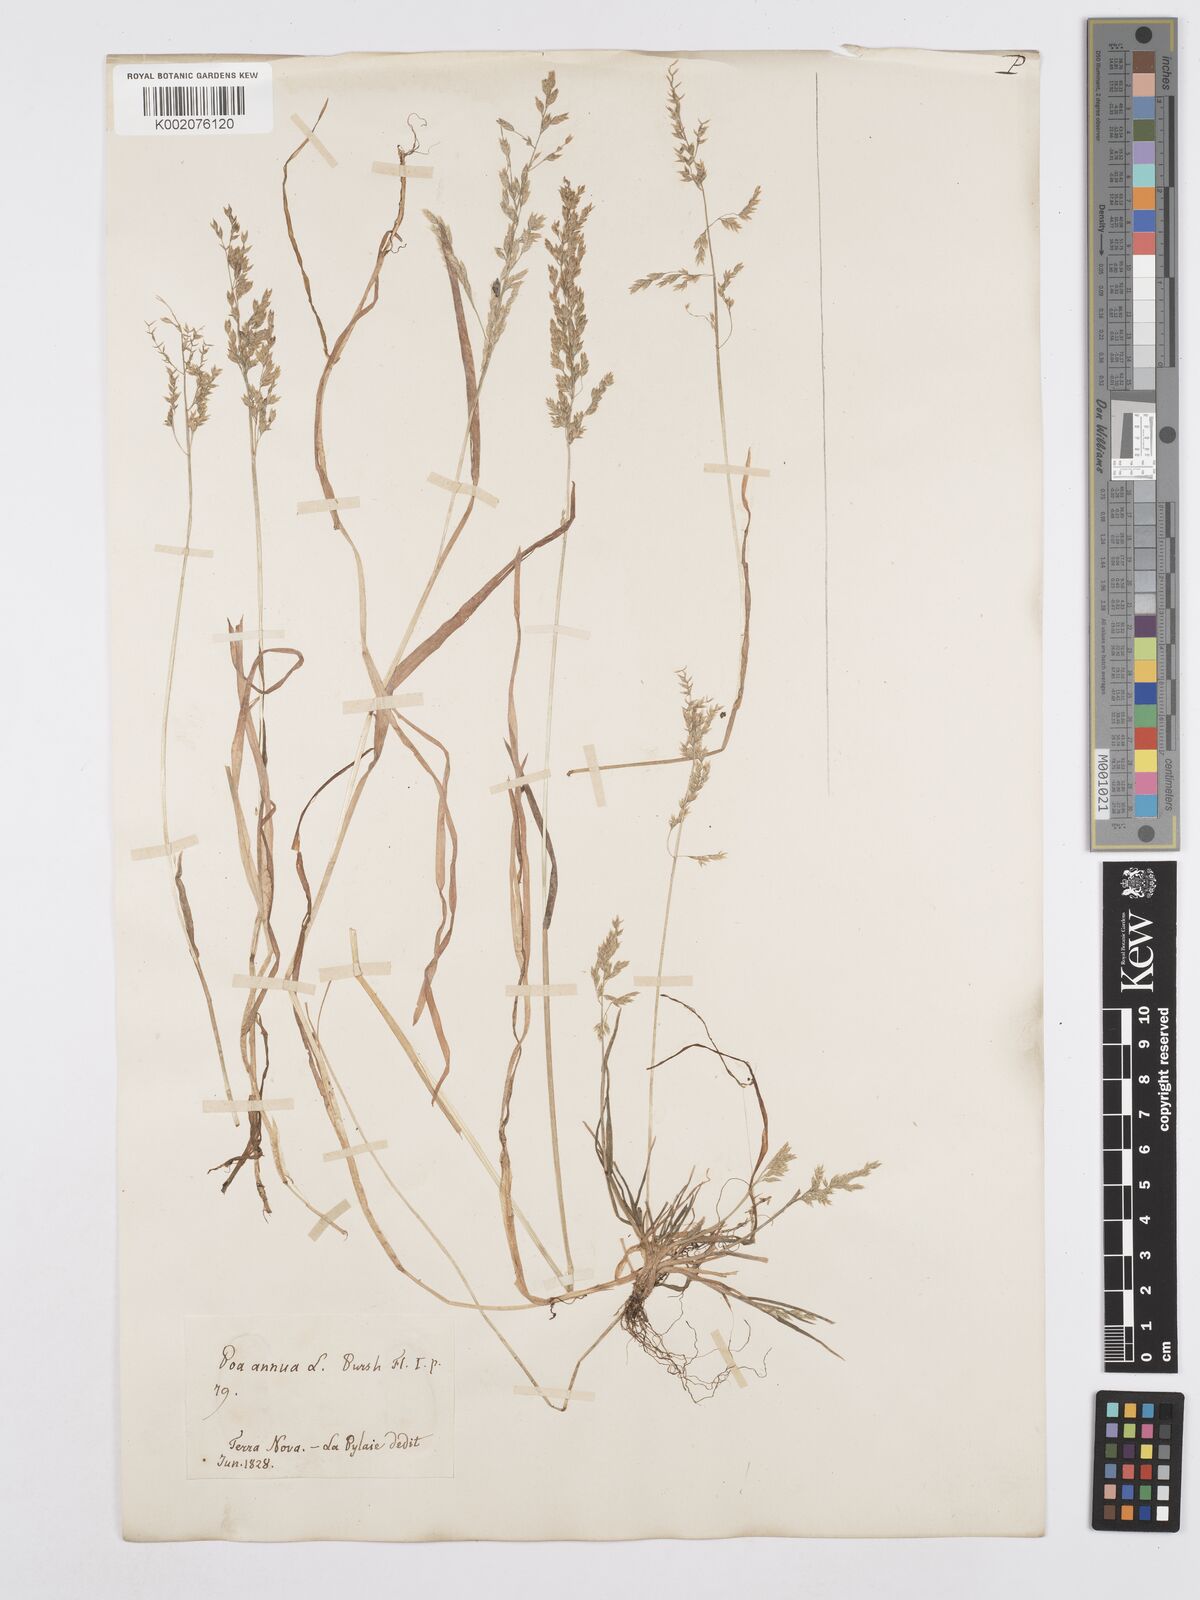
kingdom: Plantae
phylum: Tracheophyta
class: Liliopsida
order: Poales
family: Poaceae
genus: Poa
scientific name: Poa annua
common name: Annual bluegrass
